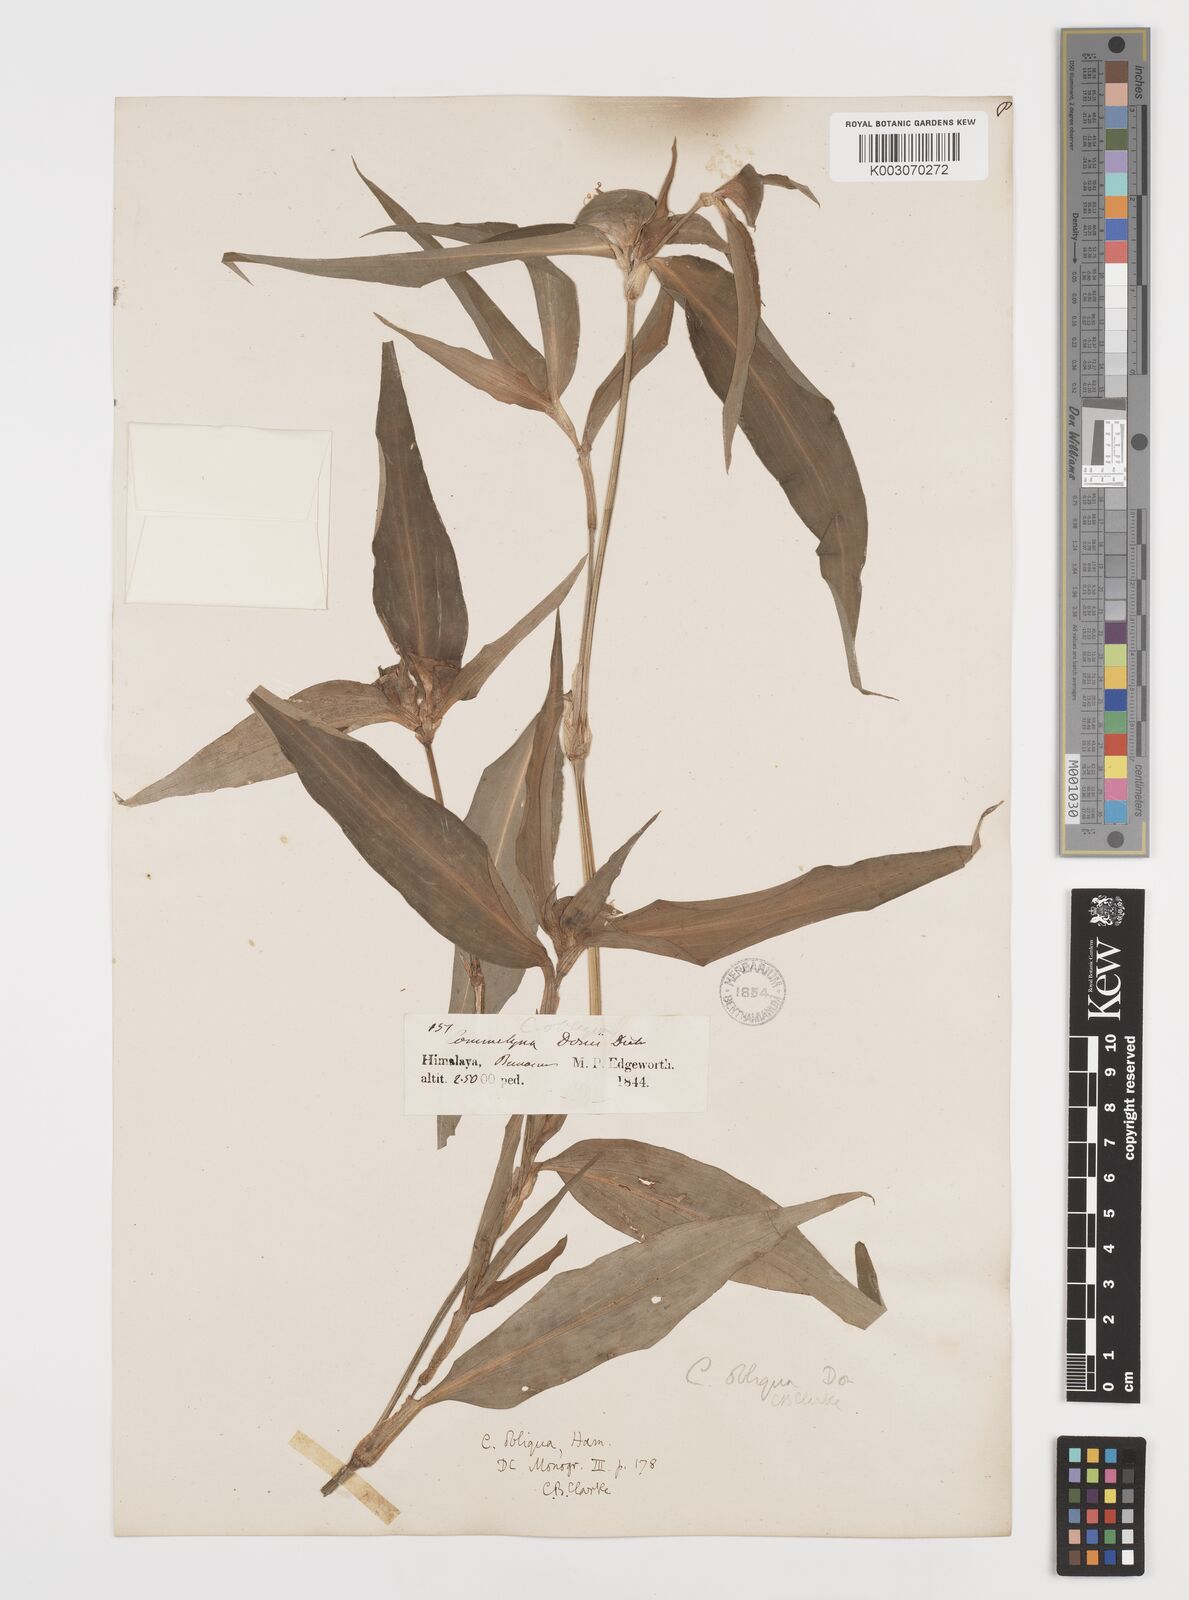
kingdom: Plantae
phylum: Tracheophyta
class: Liliopsida
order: Commelinales
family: Commelinaceae
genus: Commelina
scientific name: Commelina paludosa
